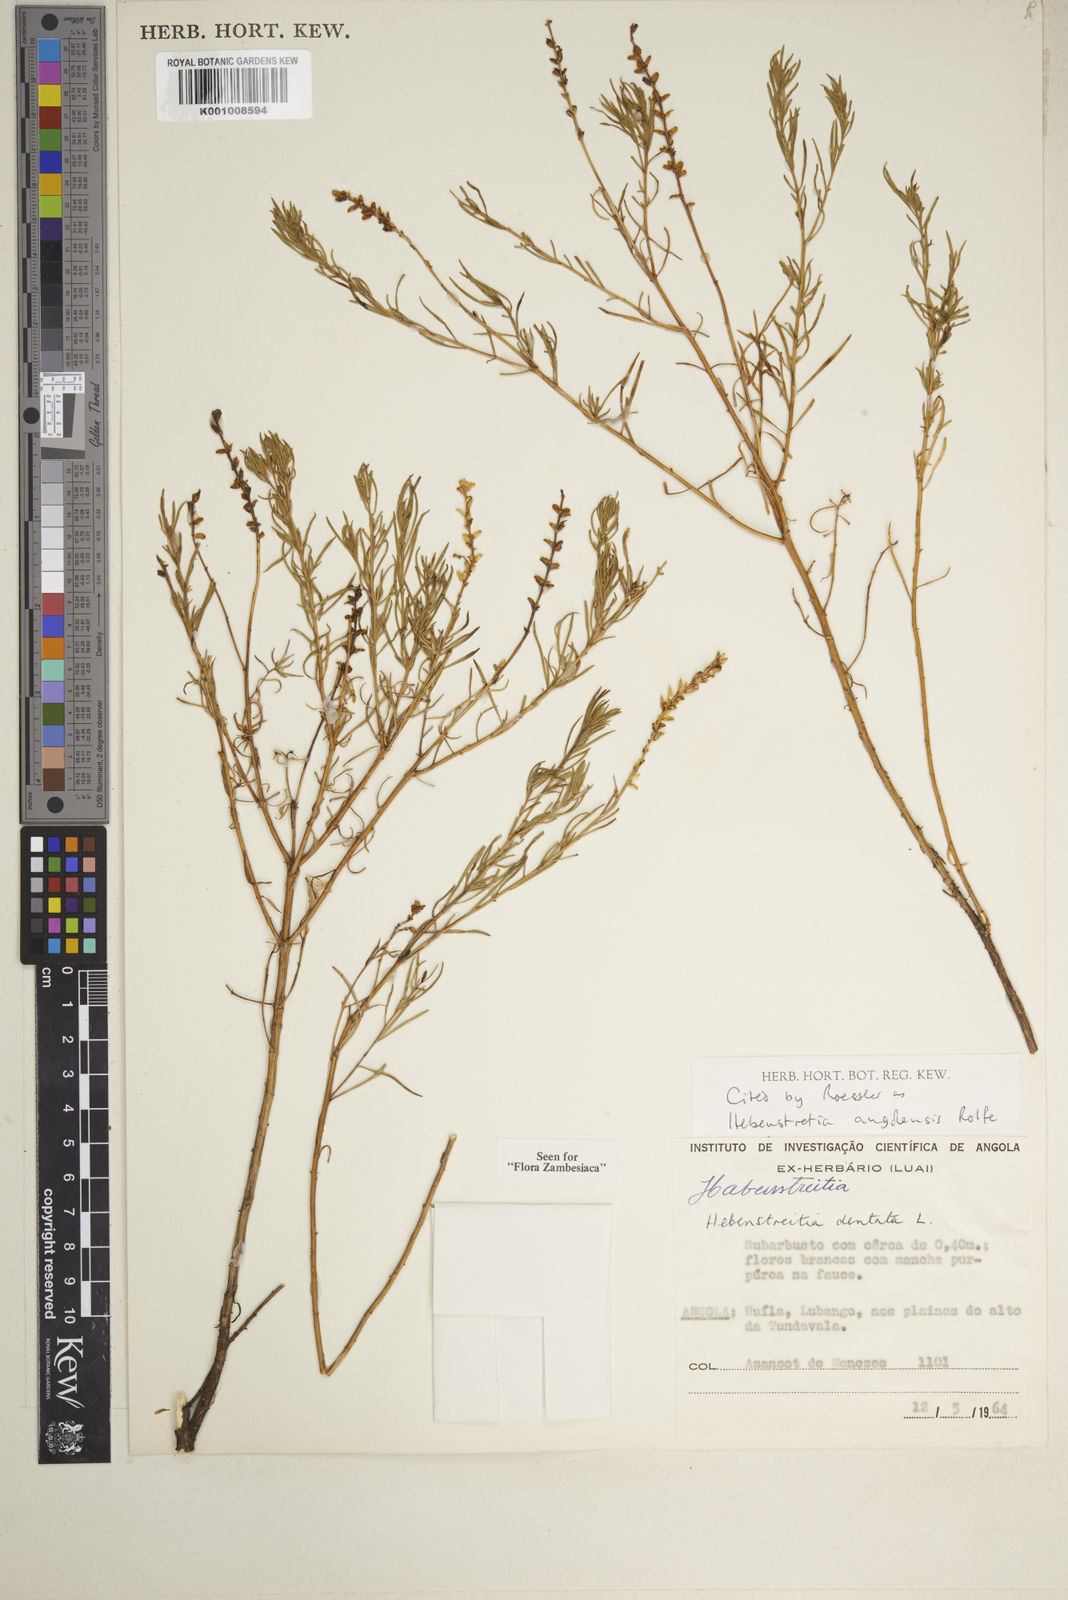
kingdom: Plantae
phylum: Tracheophyta
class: Magnoliopsida
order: Lamiales
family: Scrophulariaceae
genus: Hebenstretia
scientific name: Hebenstretia angolensis
